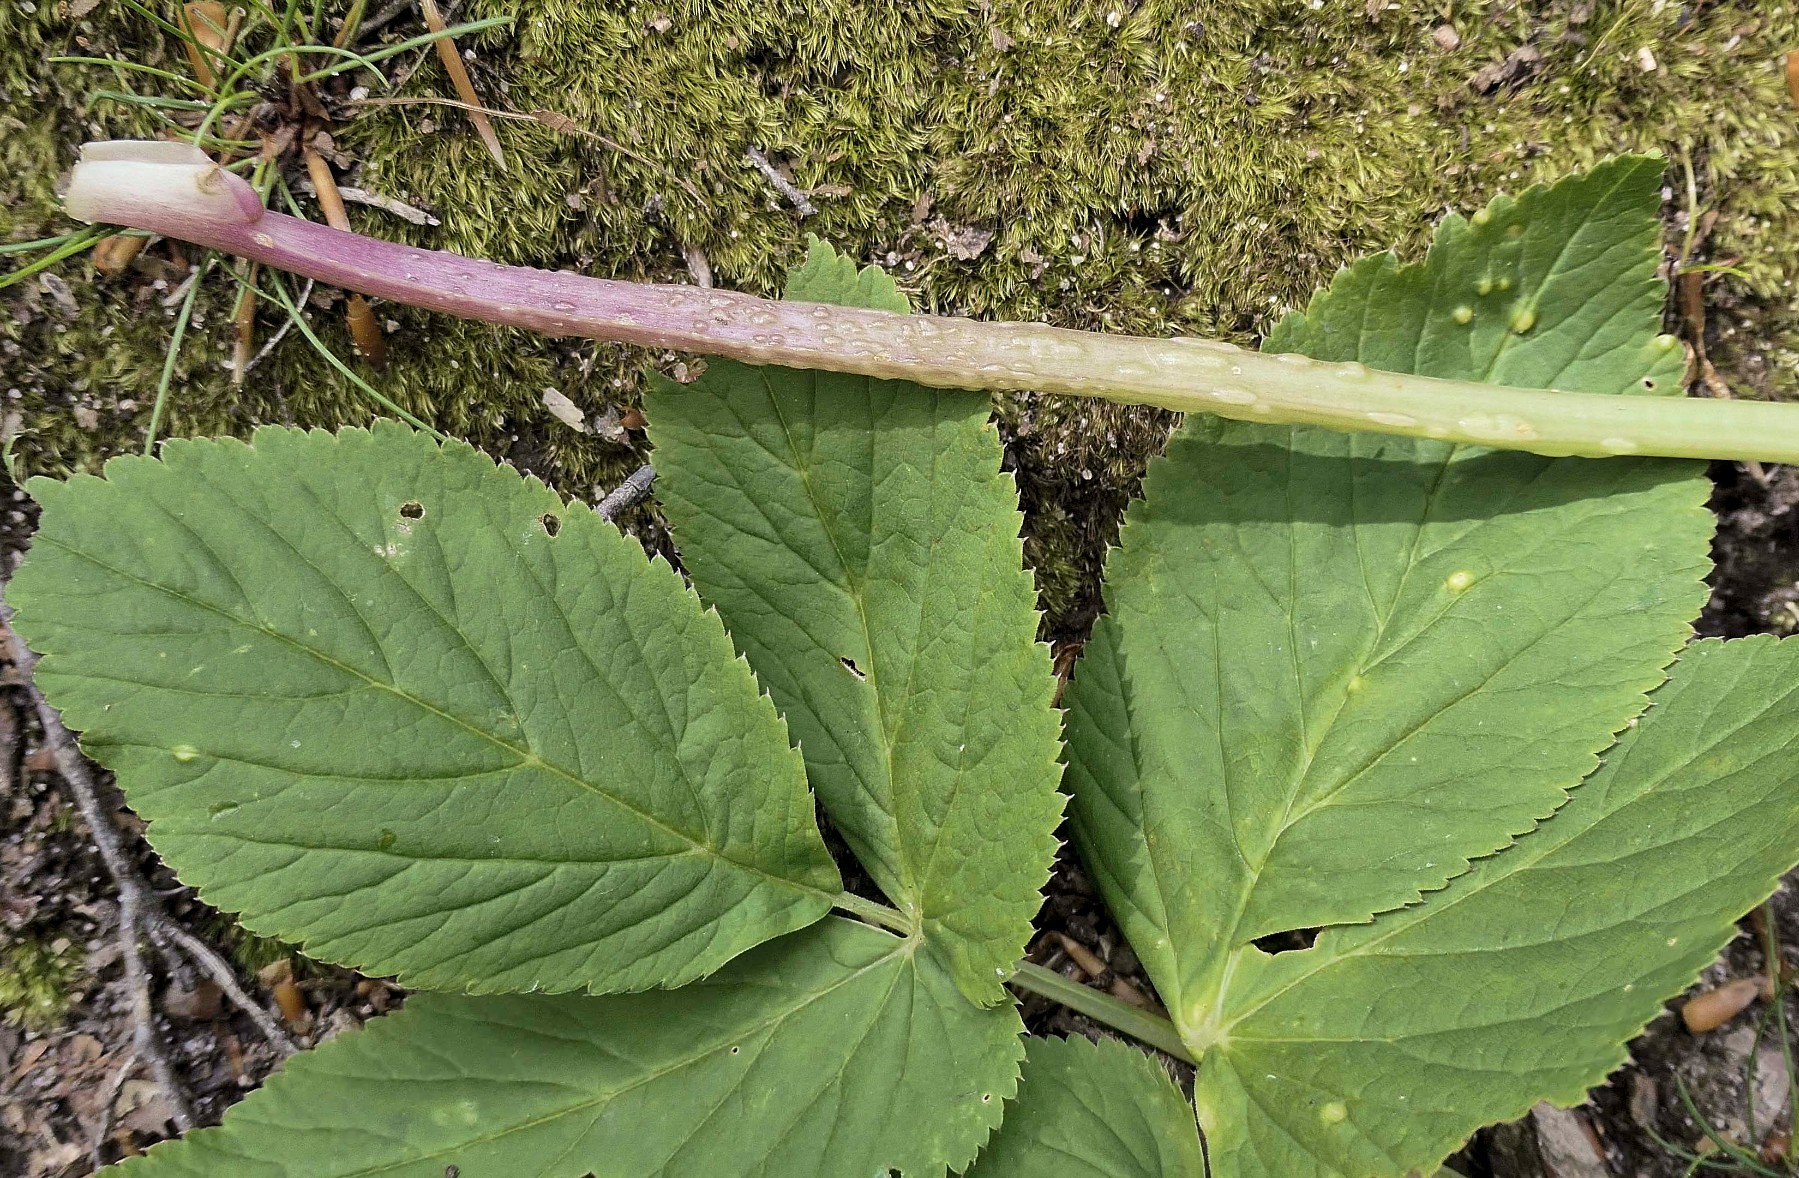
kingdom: Fungi
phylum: Ascomycota
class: Taphrinomycetes
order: Taphrinales
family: Taphrinaceae
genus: Protomyces
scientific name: Protomyces macrosporus
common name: skvalderkål-vablesæk
